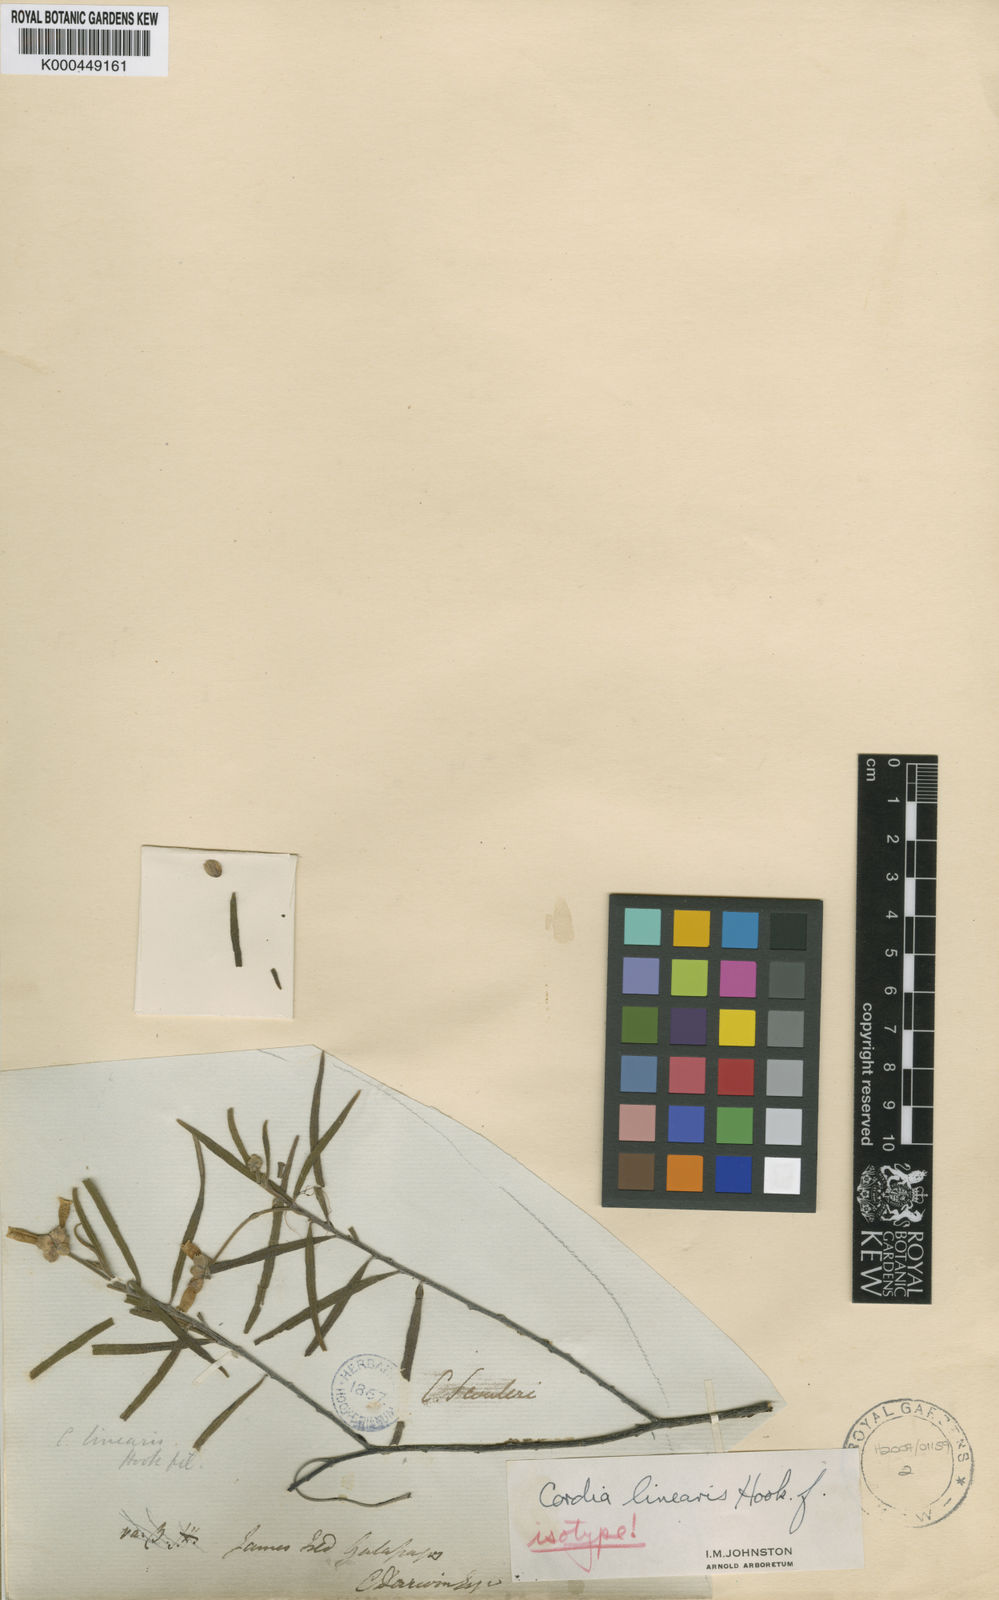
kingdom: Plantae
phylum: Tracheophyta
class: Magnoliopsida
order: Boraginales
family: Cordiaceae
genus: Varronia
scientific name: Varronia revoluta
